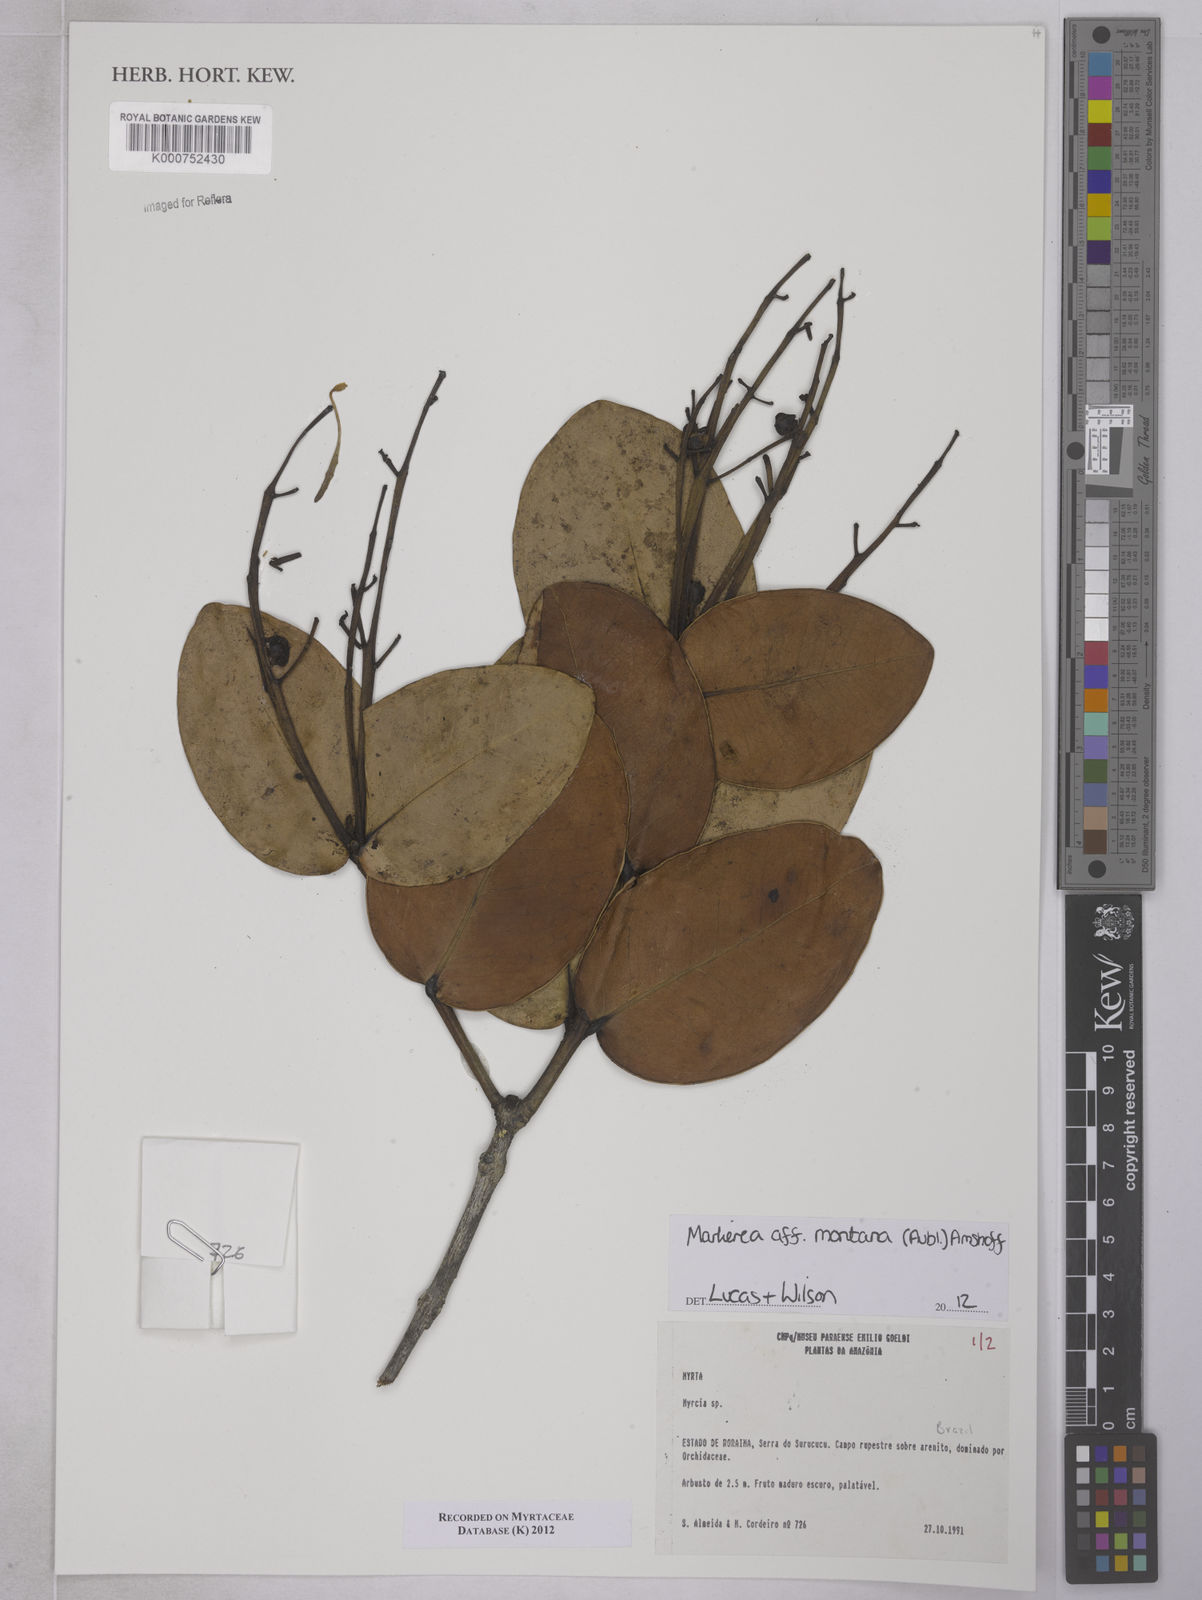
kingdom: Plantae
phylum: Tracheophyta
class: Magnoliopsida
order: Myrtales
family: Myrtaceae
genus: Myrcia
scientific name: Myrcia neomontana
